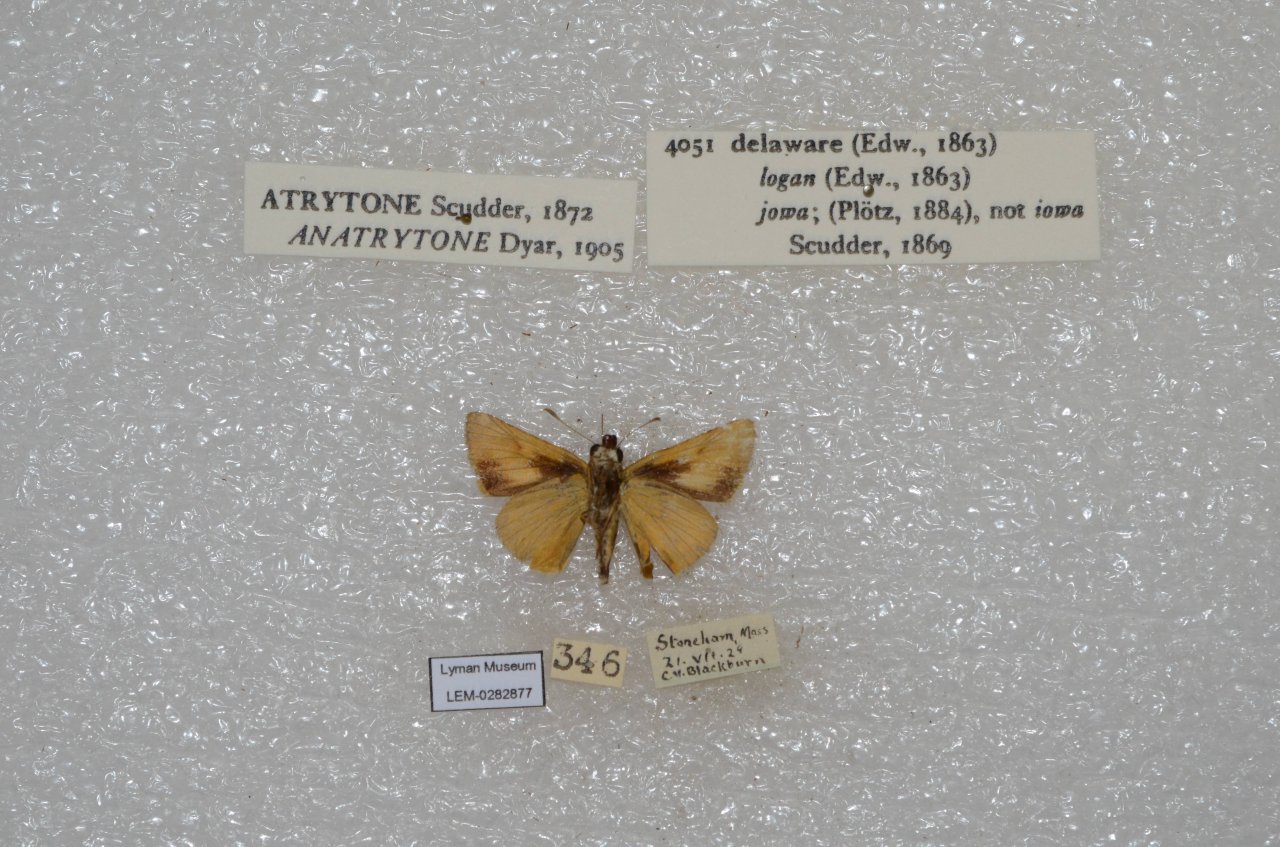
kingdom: Animalia
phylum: Arthropoda
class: Insecta
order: Lepidoptera
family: Hesperiidae
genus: Atrytone
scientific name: Atrytone delaware
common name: Delaware Skipper
